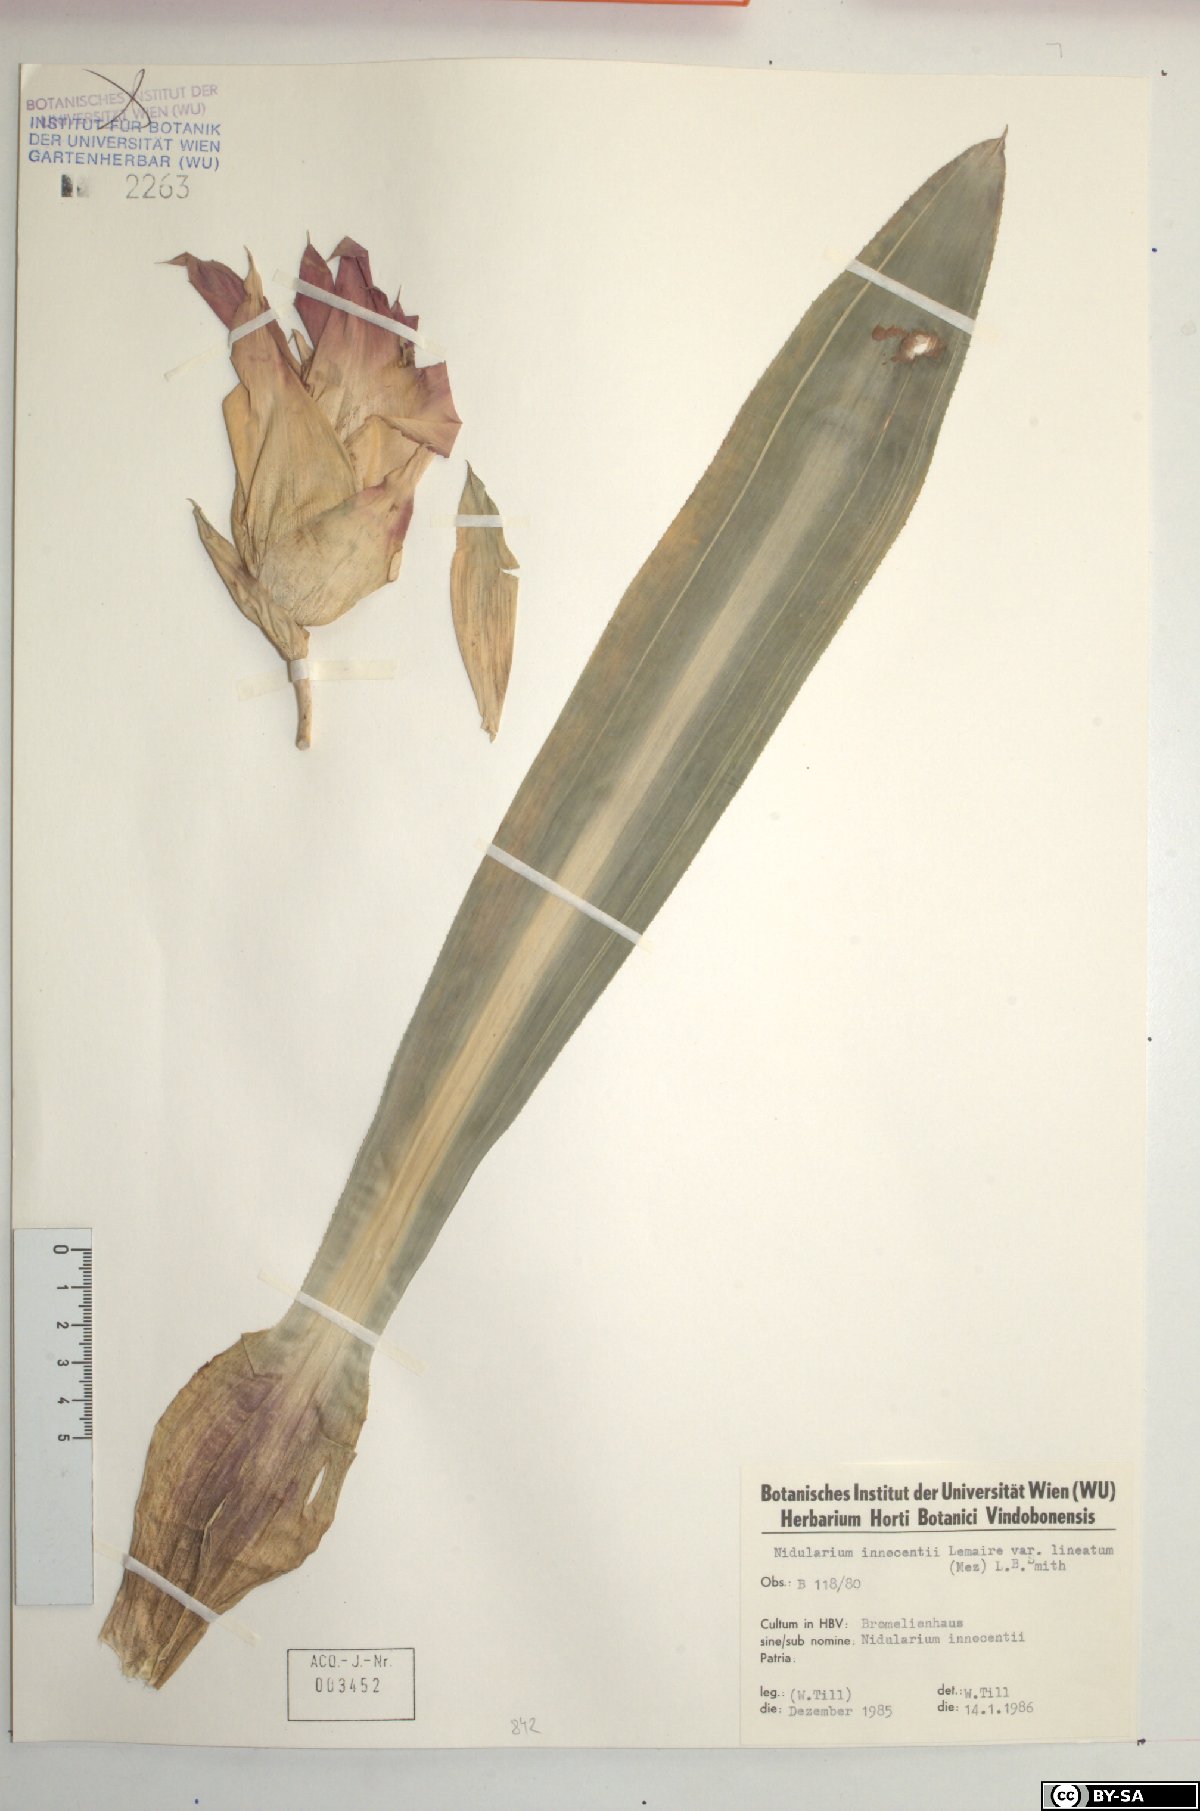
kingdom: Plantae
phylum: Tracheophyta
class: Liliopsida
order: Poales
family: Bromeliaceae
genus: Nidularium
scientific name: Nidularium innocentii
